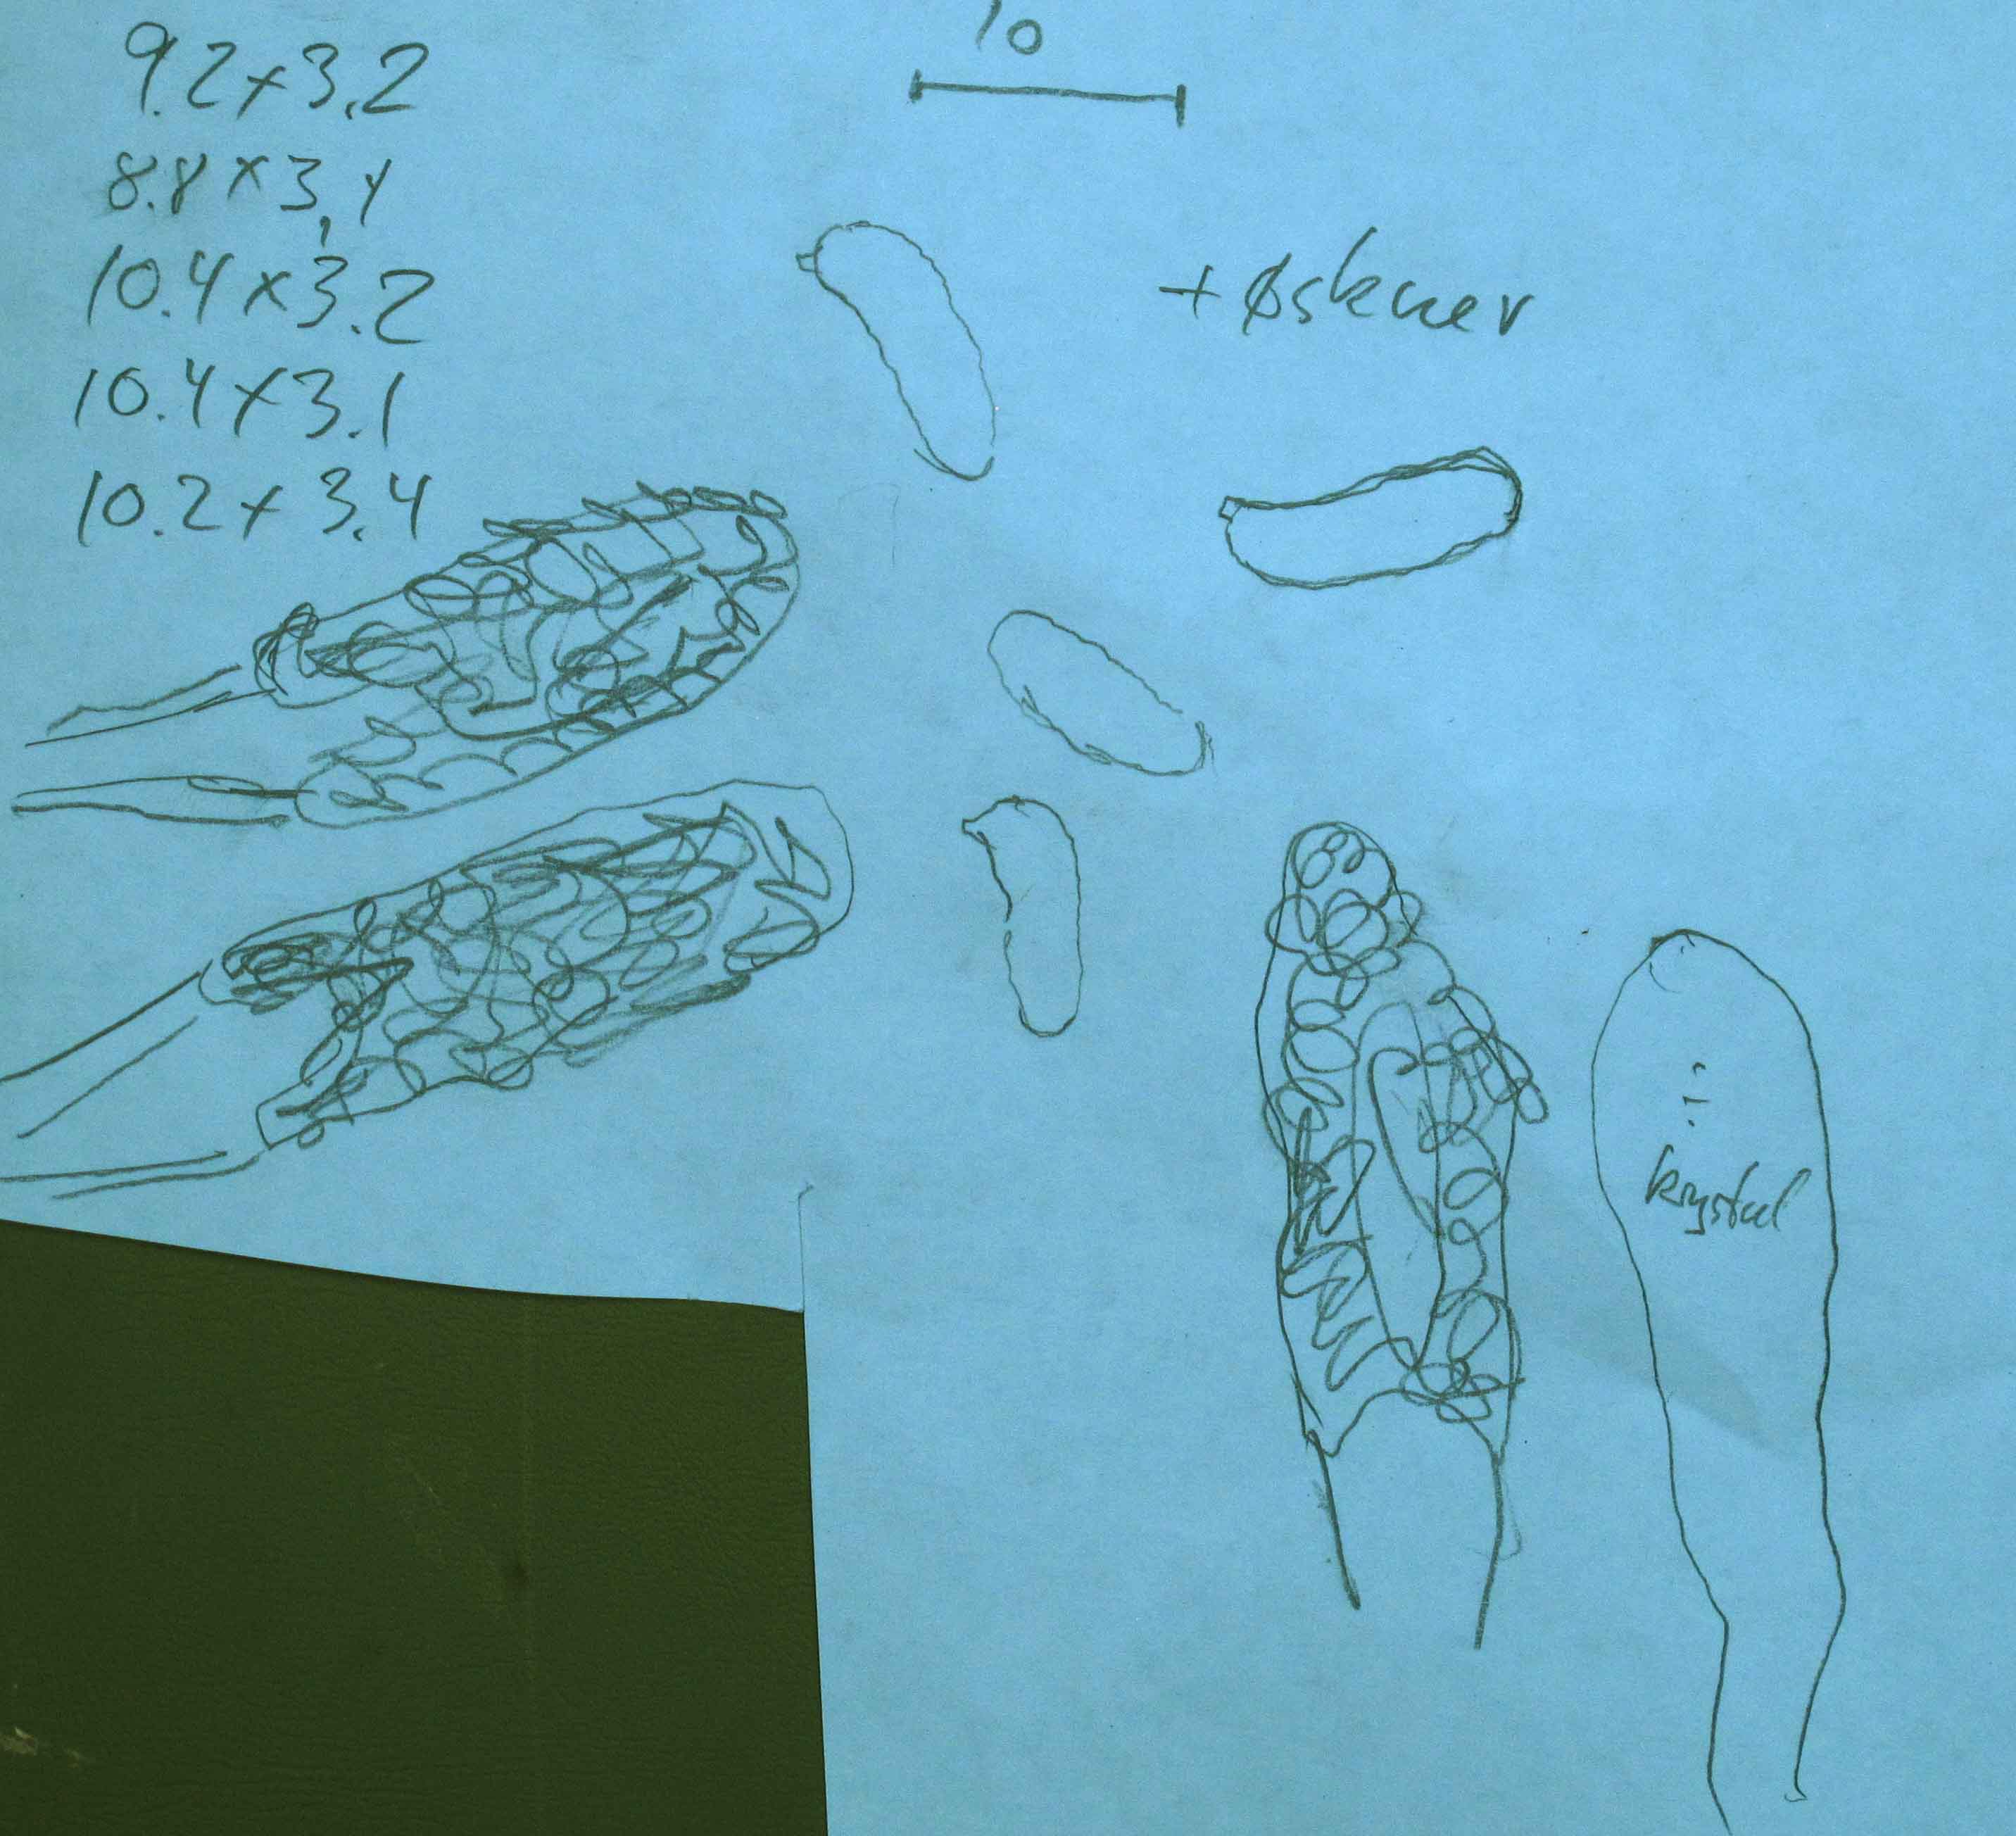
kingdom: Fungi
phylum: Basidiomycota
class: Agaricomycetes
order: Russulales
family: Peniophoraceae
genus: Peniophora
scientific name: Peniophora cinerea
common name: grå voksskind
